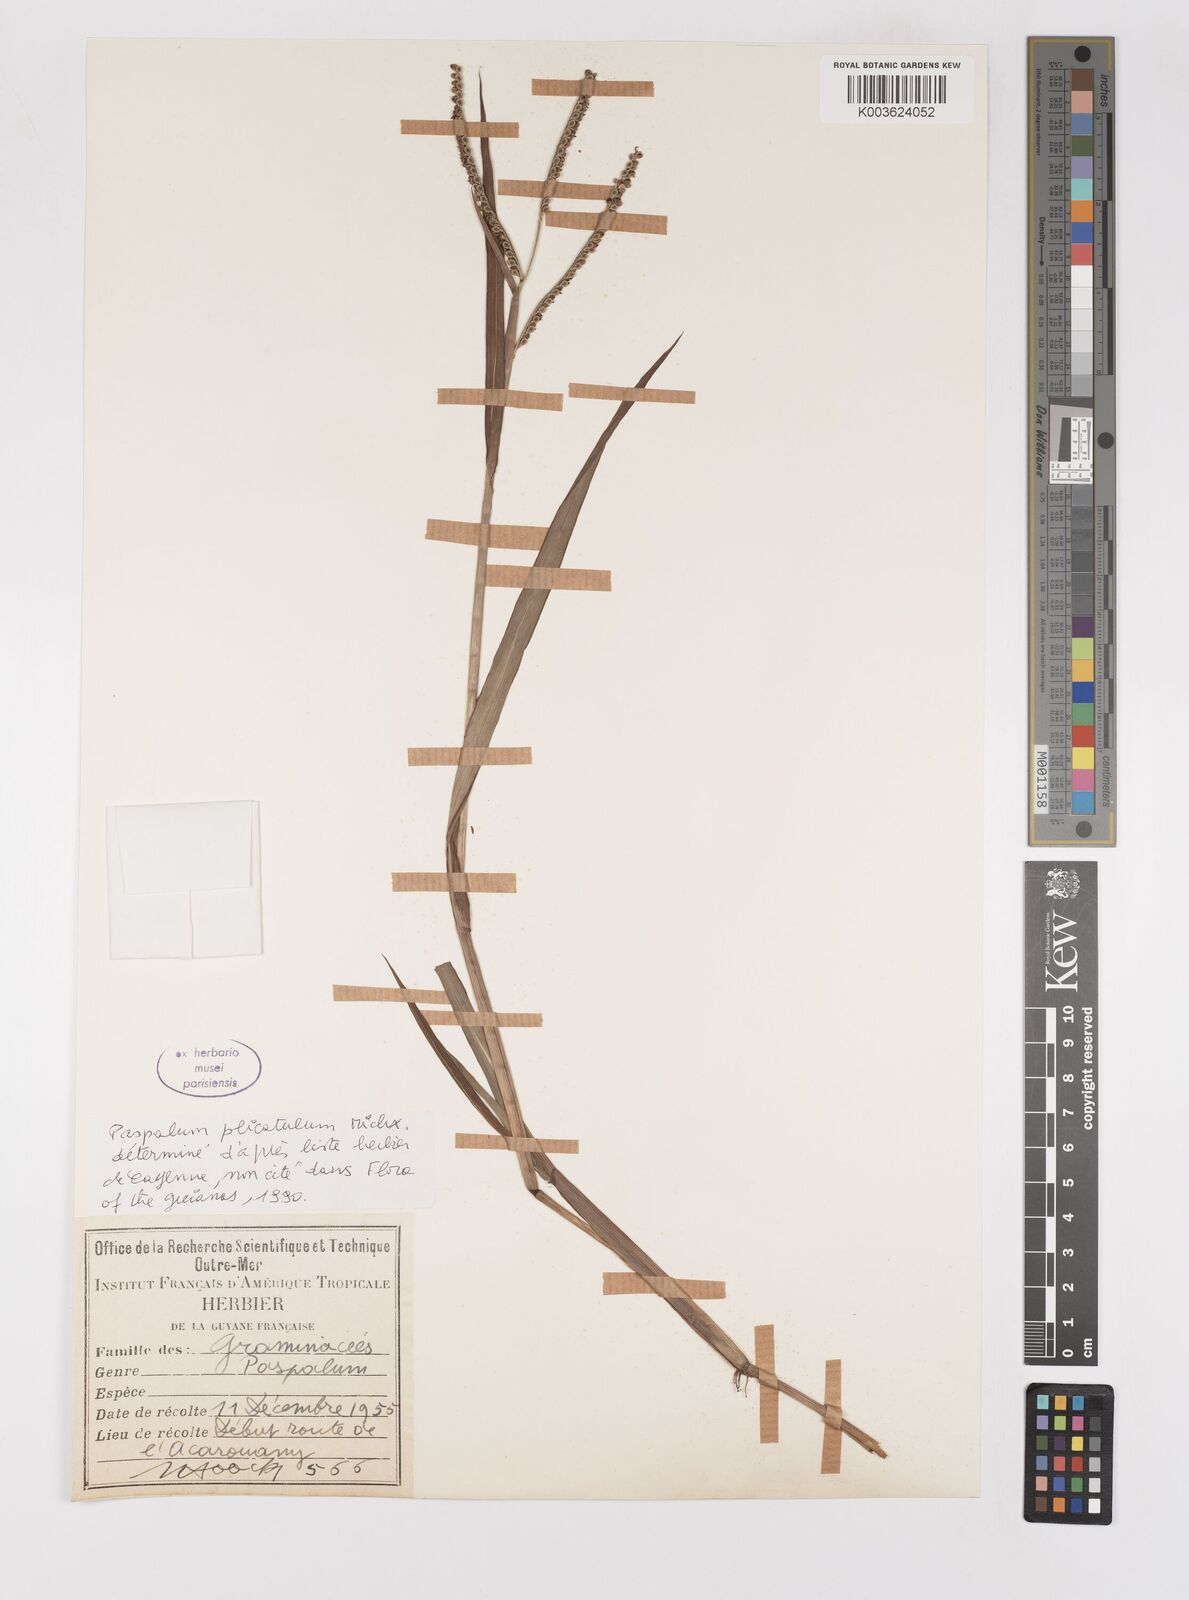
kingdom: Plantae
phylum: Tracheophyta
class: Liliopsida
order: Poales
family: Poaceae
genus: Paspalum
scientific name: Paspalum plicatulum
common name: Top paspalum
